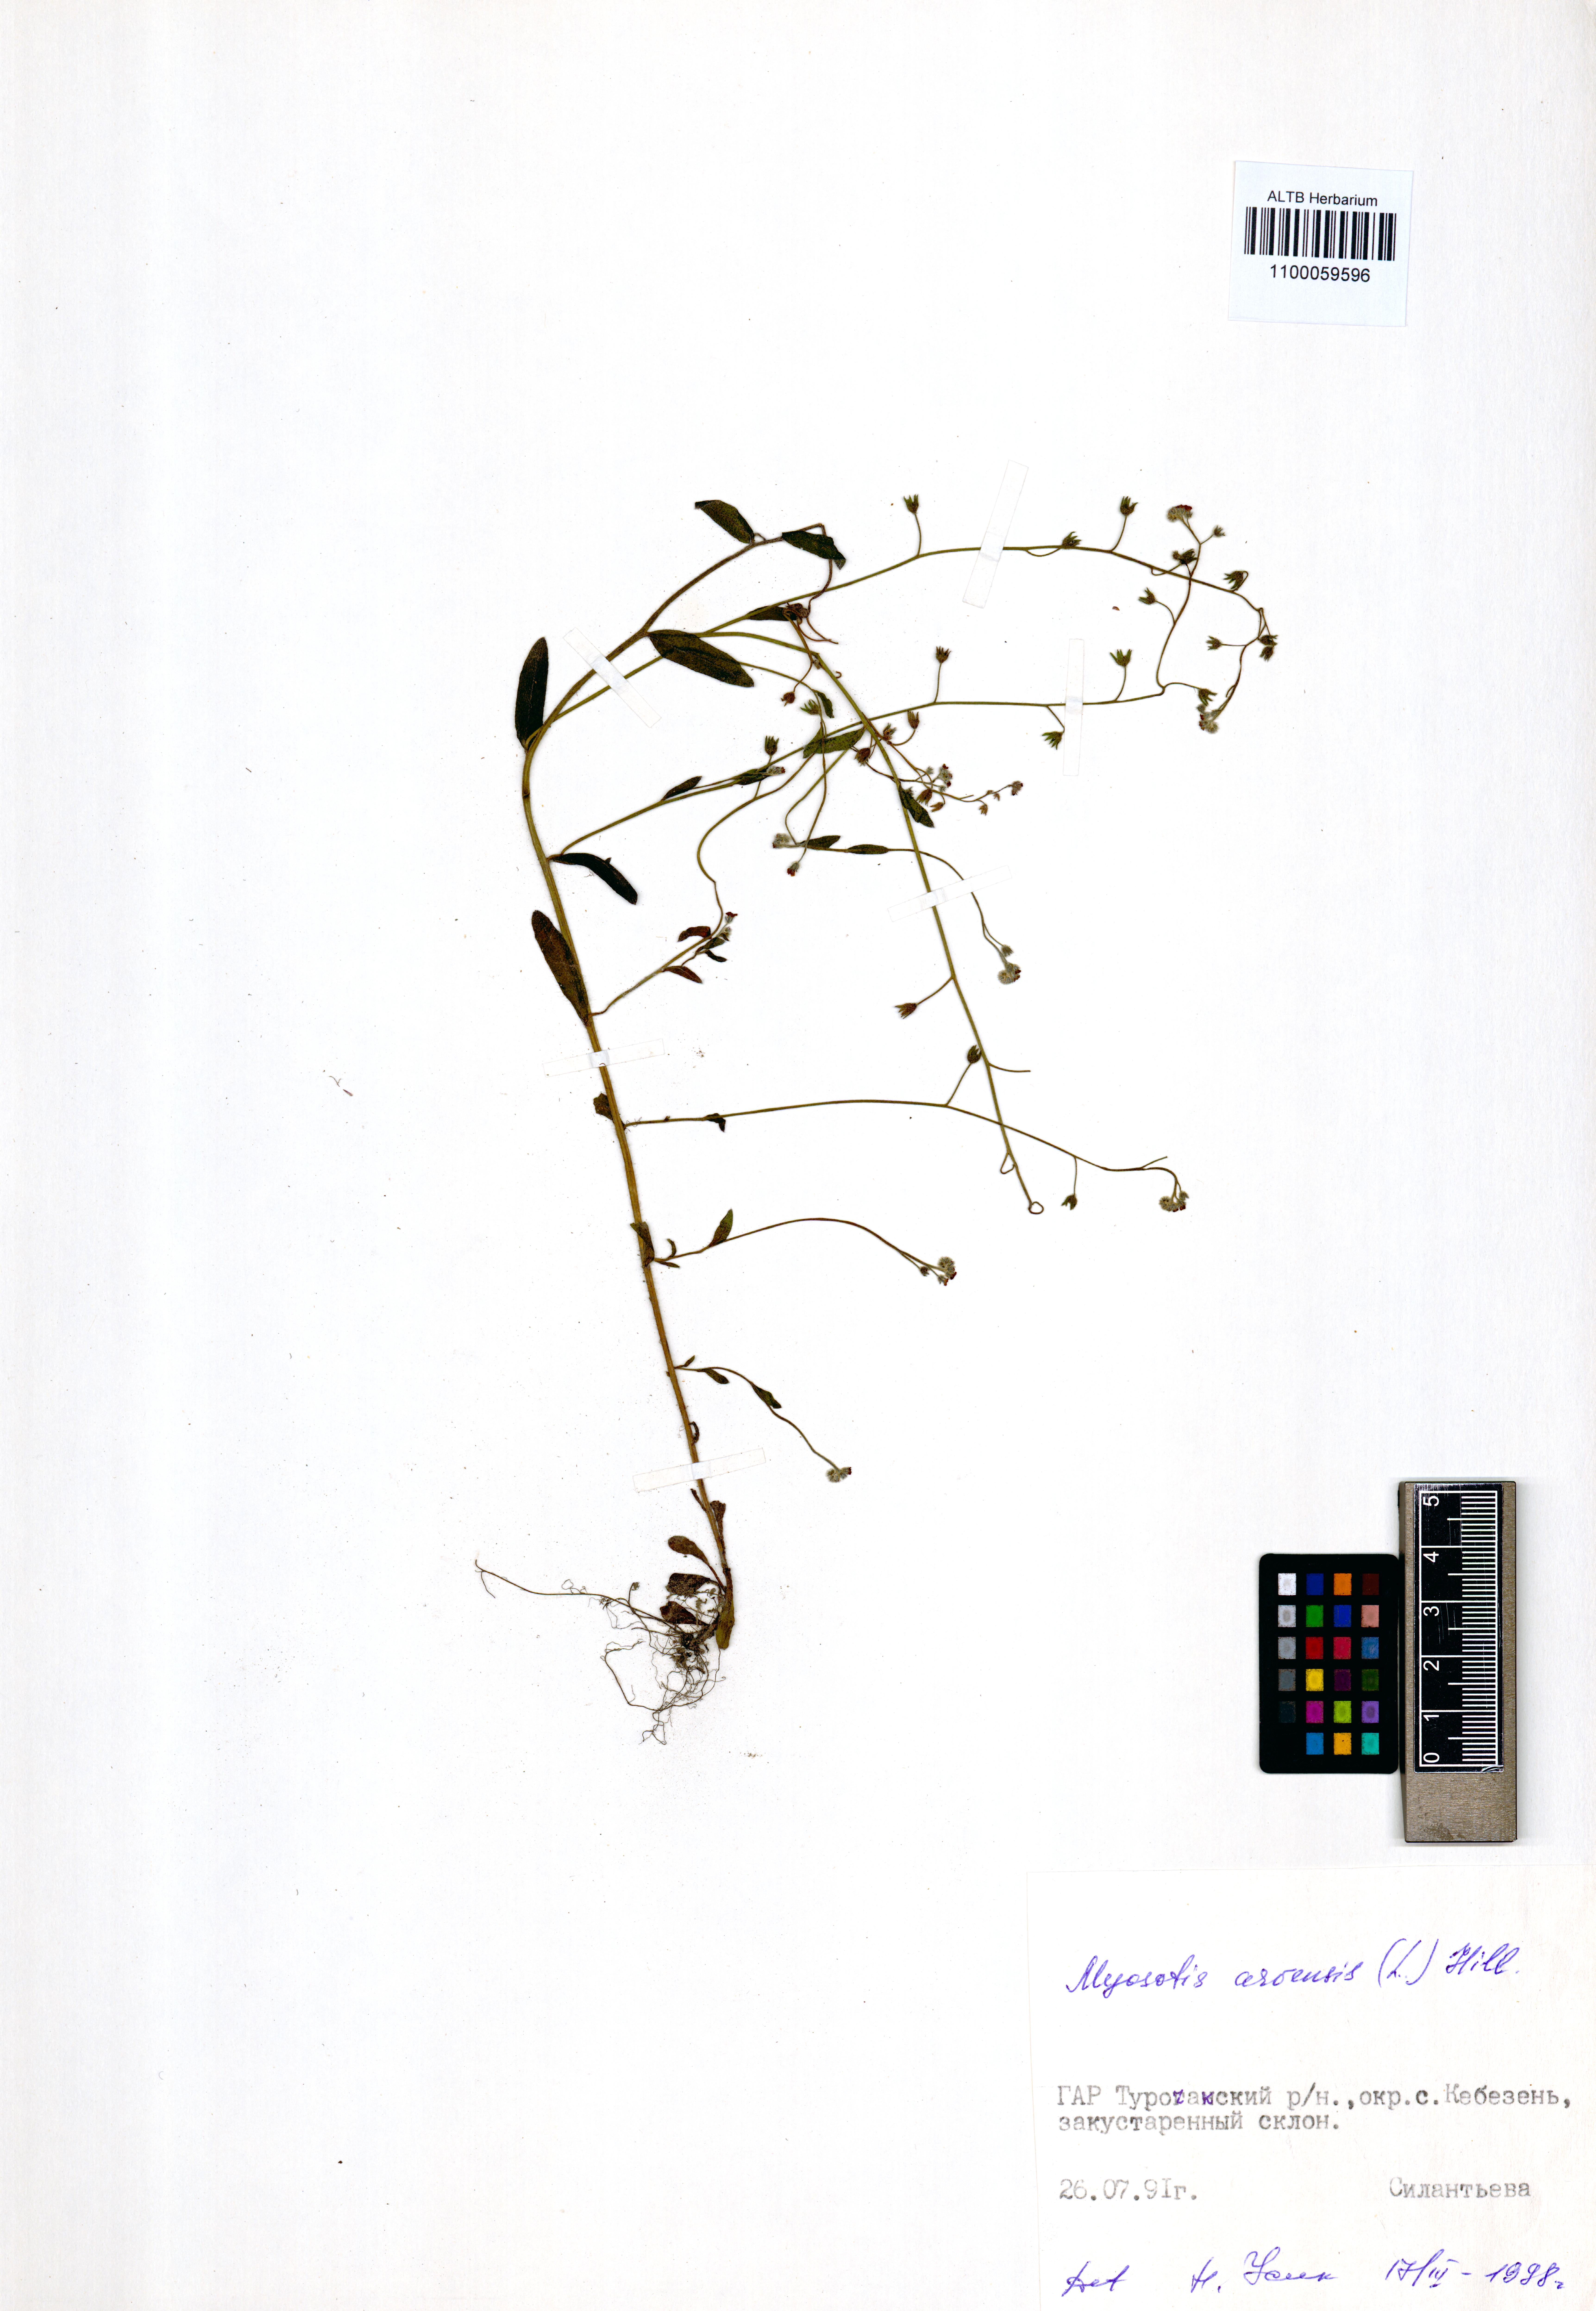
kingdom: Plantae
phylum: Tracheophyta
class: Magnoliopsida
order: Boraginales
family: Boraginaceae
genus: Myosotis
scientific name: Myosotis arvensis
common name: Field forget-me-not
